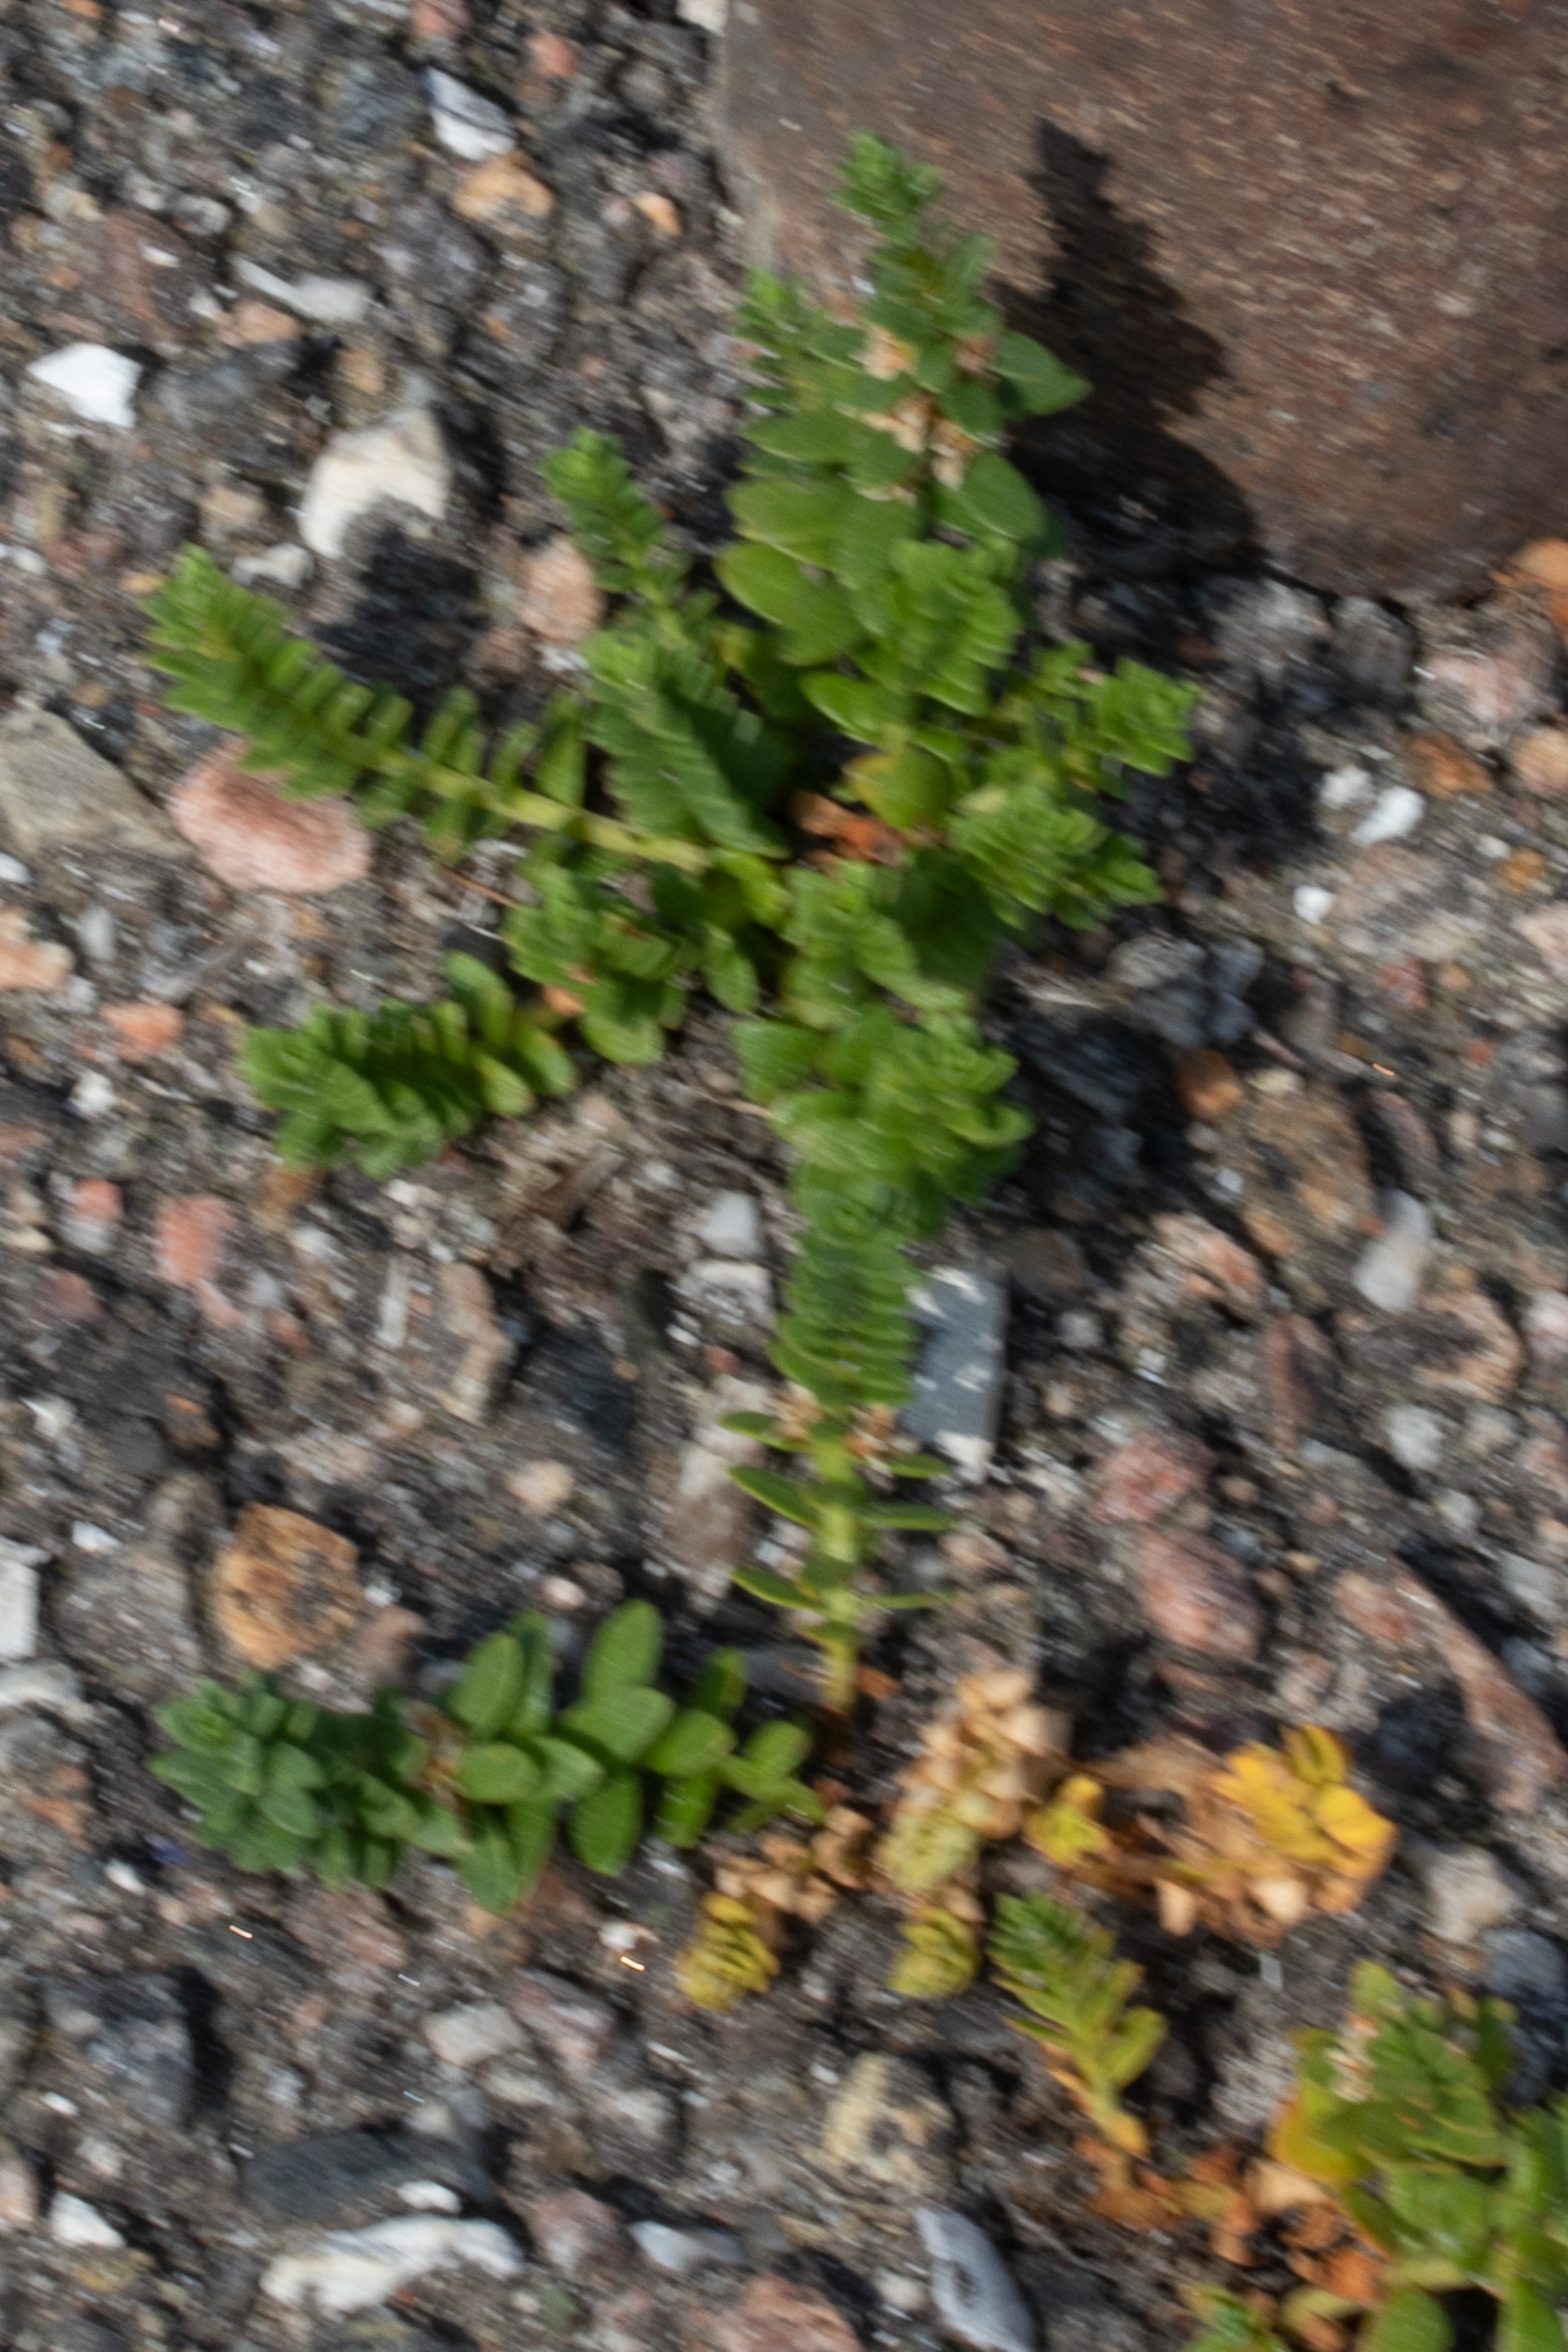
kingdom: Plantae
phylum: Tracheophyta
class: Magnoliopsida
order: Caryophyllales
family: Caryophyllaceae
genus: Honckenya
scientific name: Honckenya peploides
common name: Strandarve
